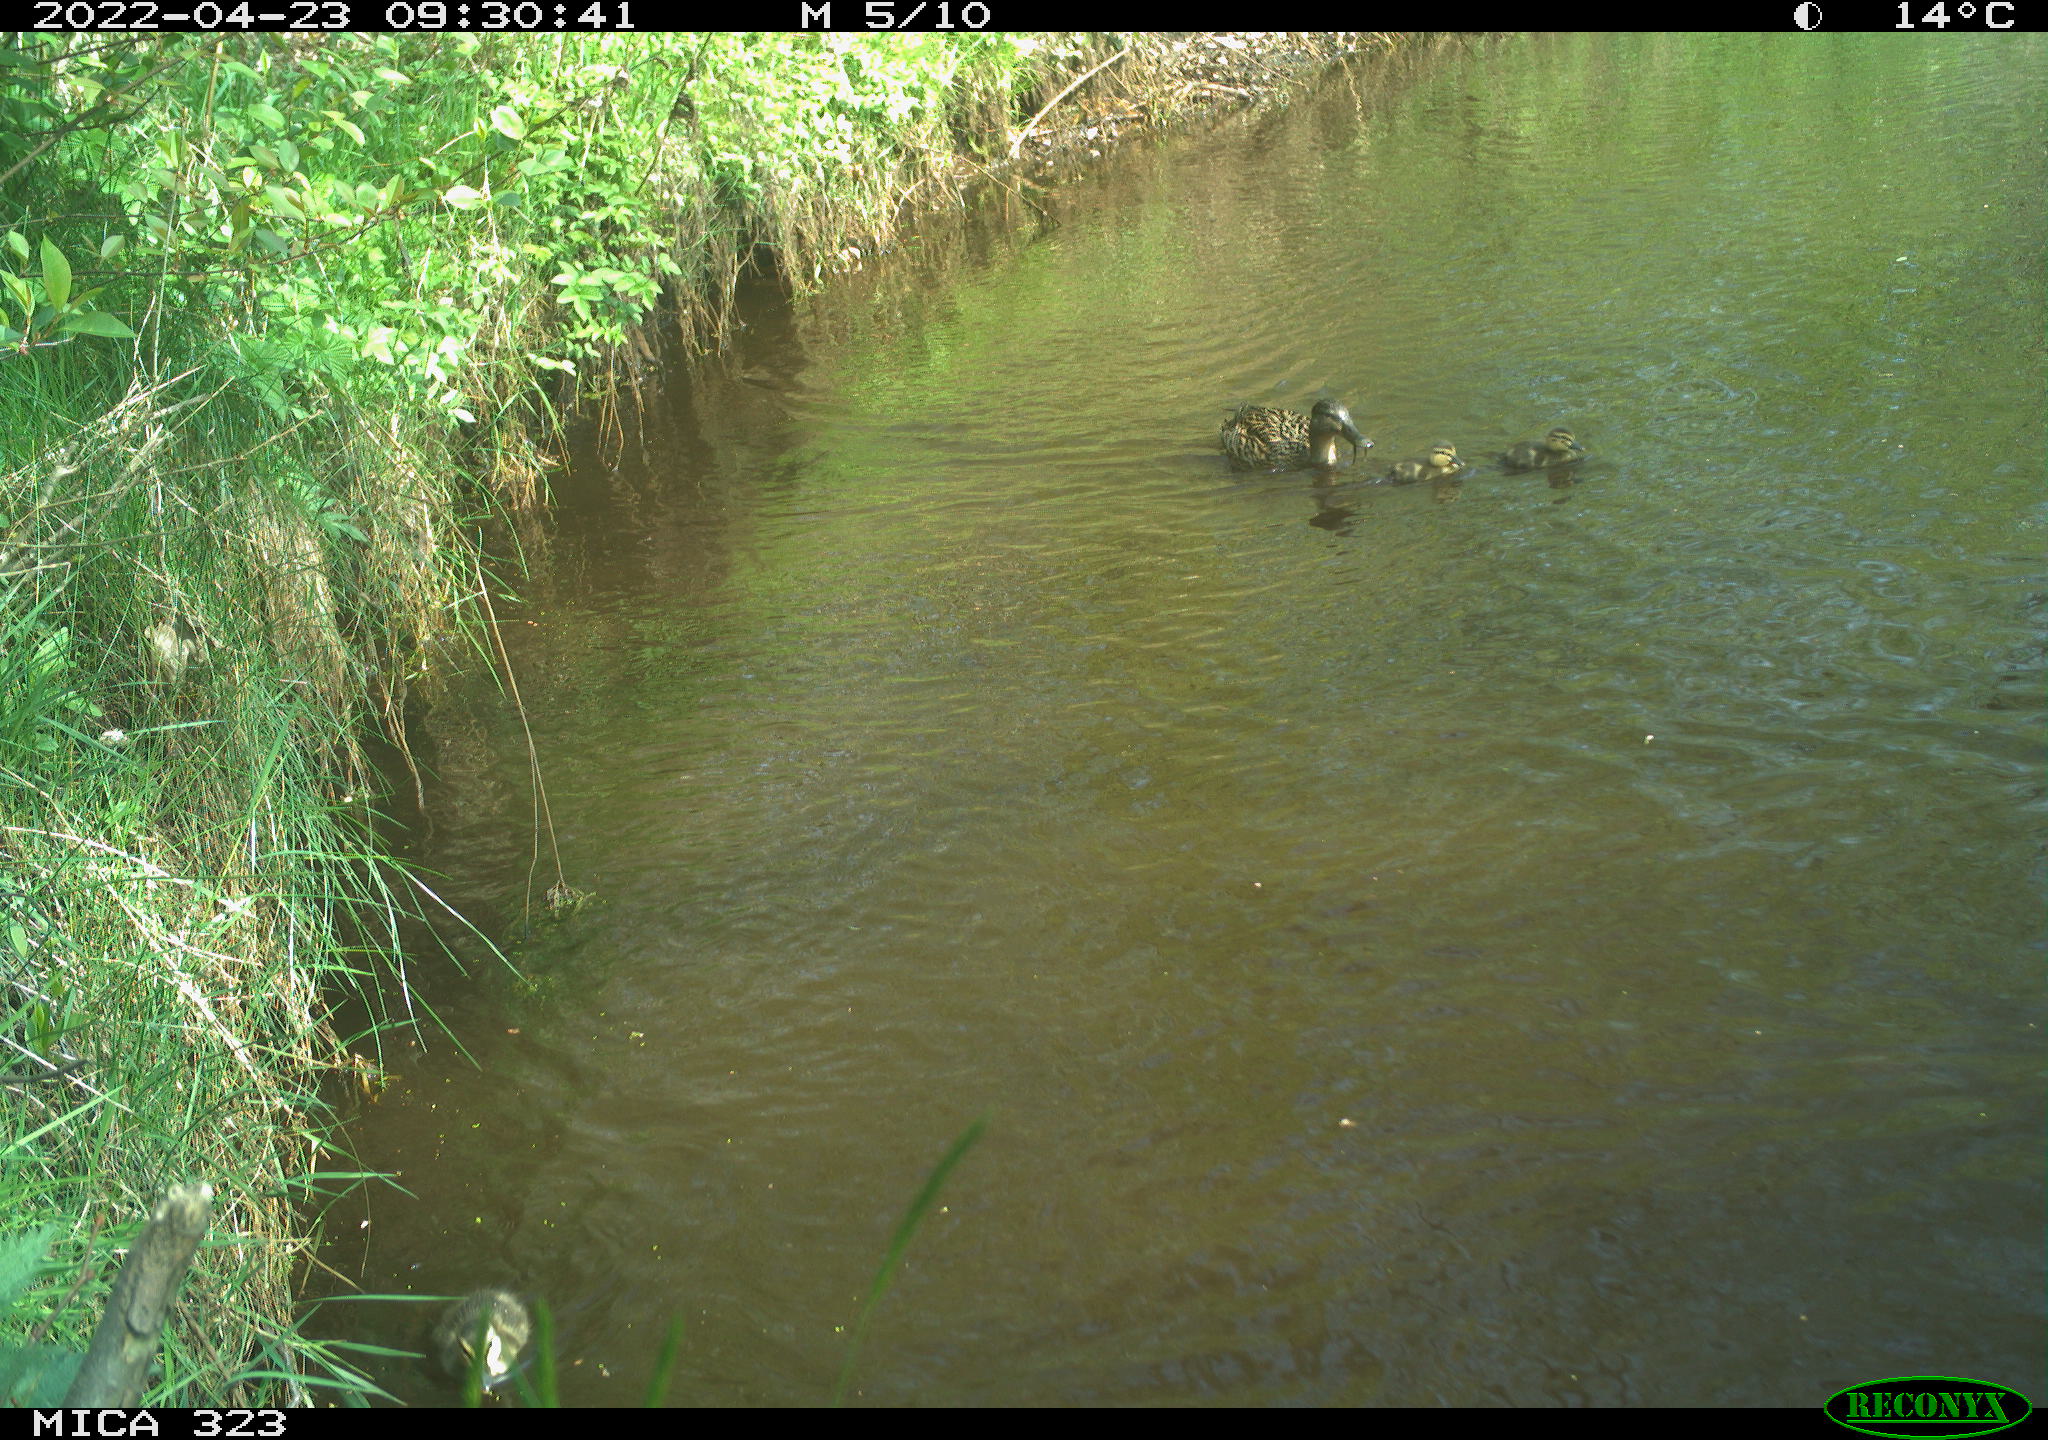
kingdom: Animalia
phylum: Chordata
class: Aves
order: Anseriformes
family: Anatidae
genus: Anas
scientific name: Anas platyrhynchos
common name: Mallard
